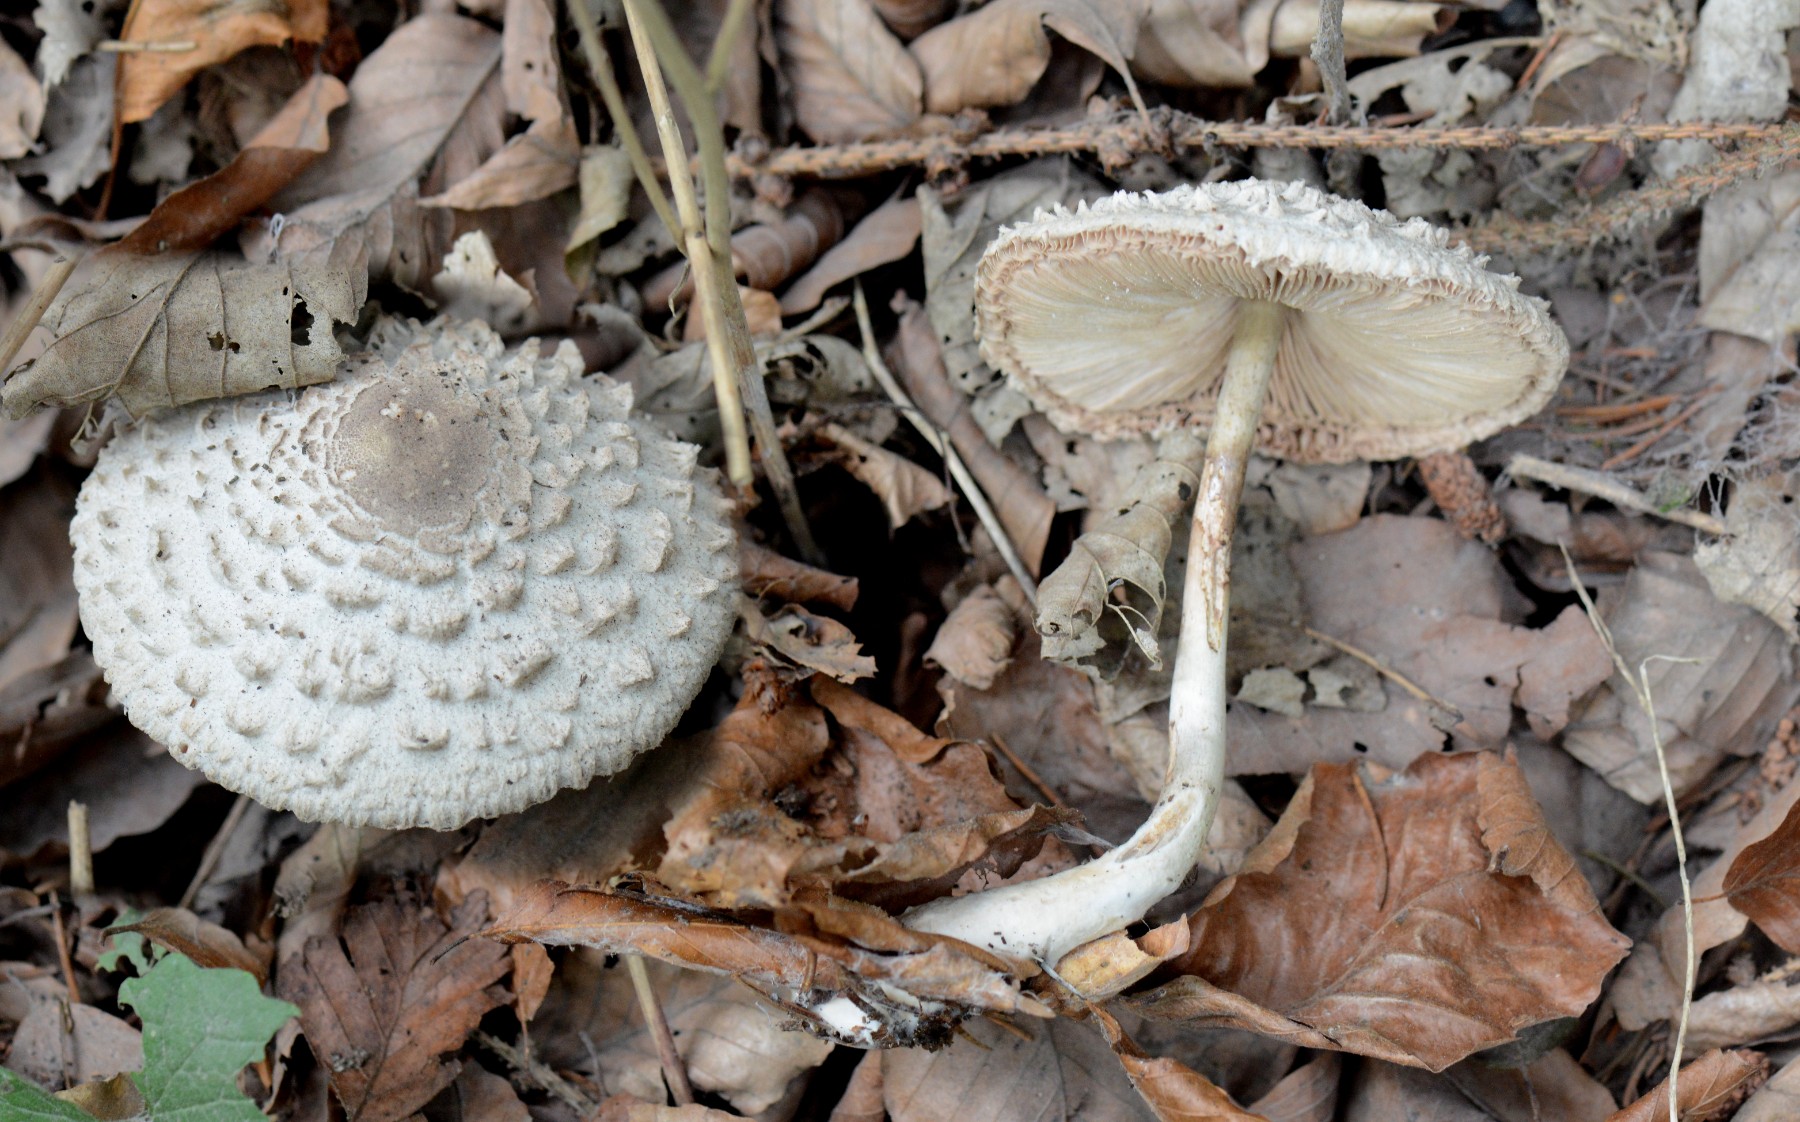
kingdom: Fungi
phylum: Basidiomycota
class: Agaricomycetes
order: Agaricales
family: Agaricaceae
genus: Chlorophyllum
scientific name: Chlorophyllum
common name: rabarberhat
